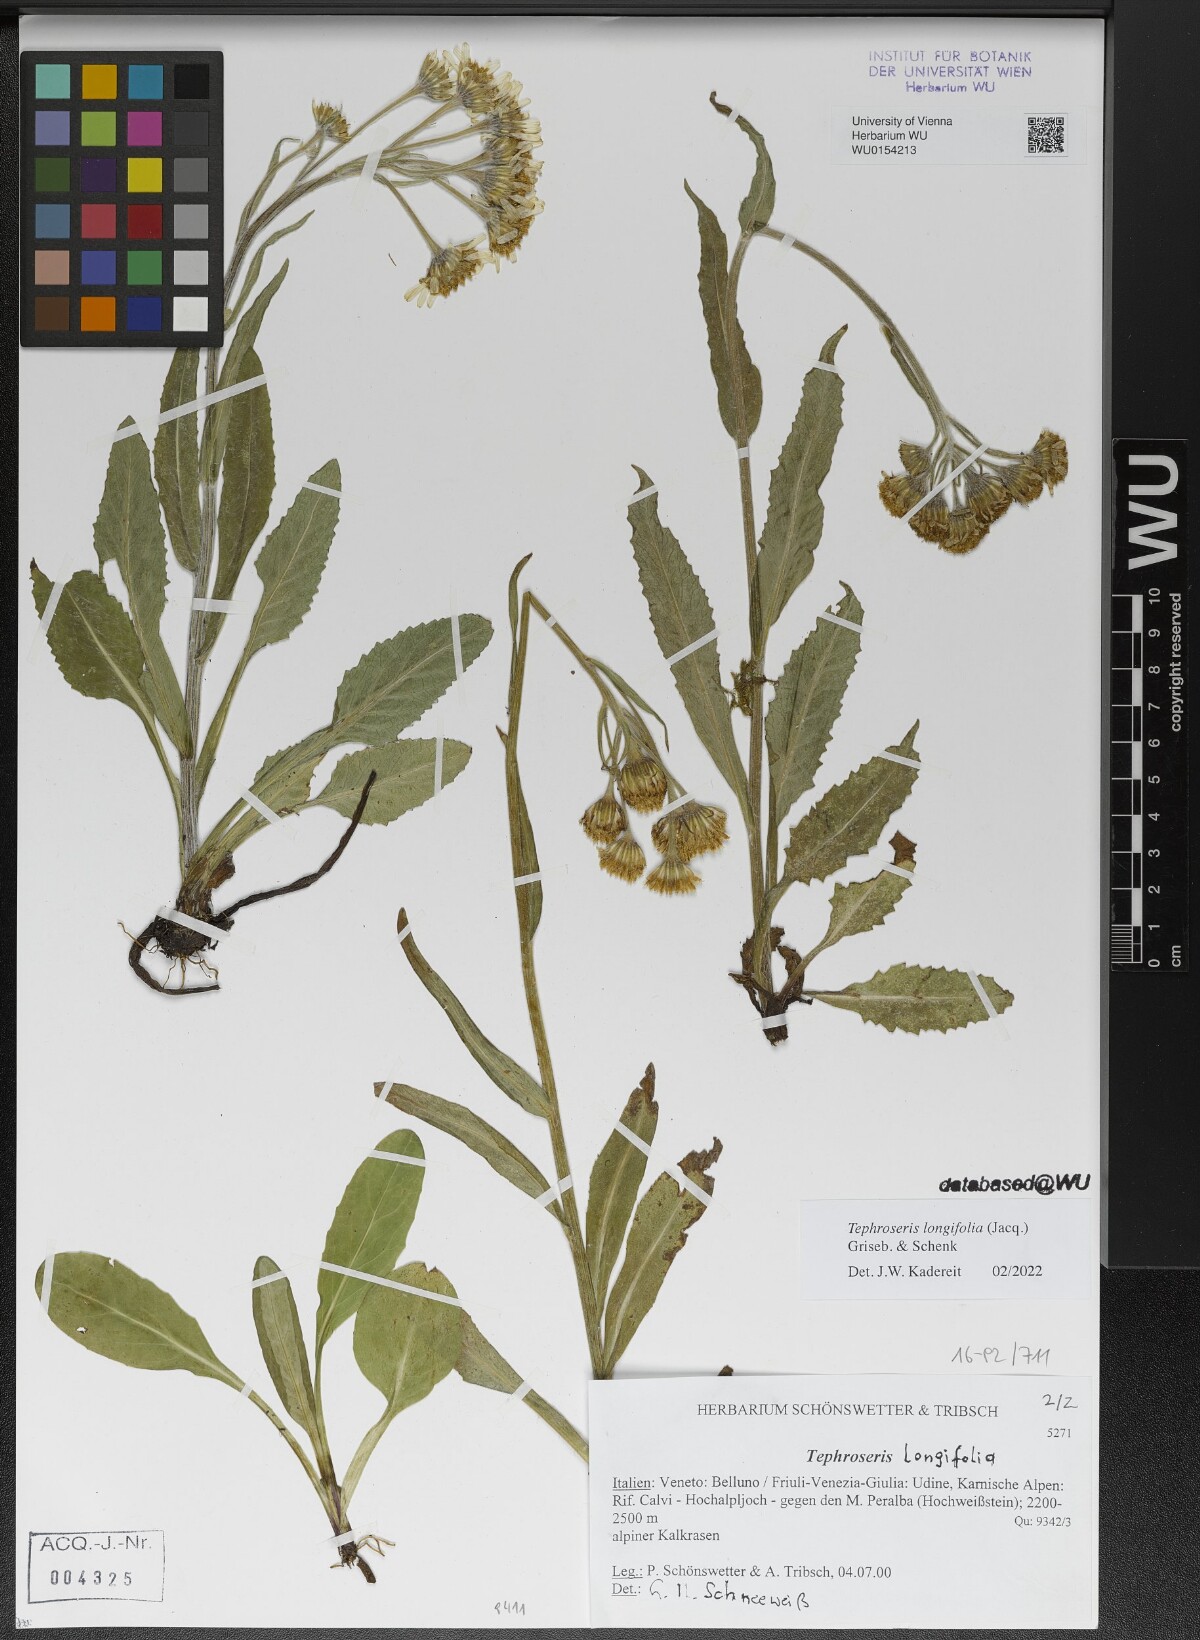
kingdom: Plantae
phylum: Tracheophyta
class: Magnoliopsida
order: Asterales
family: Asteraceae
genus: Tephroseris
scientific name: Tephroseris longifolia
